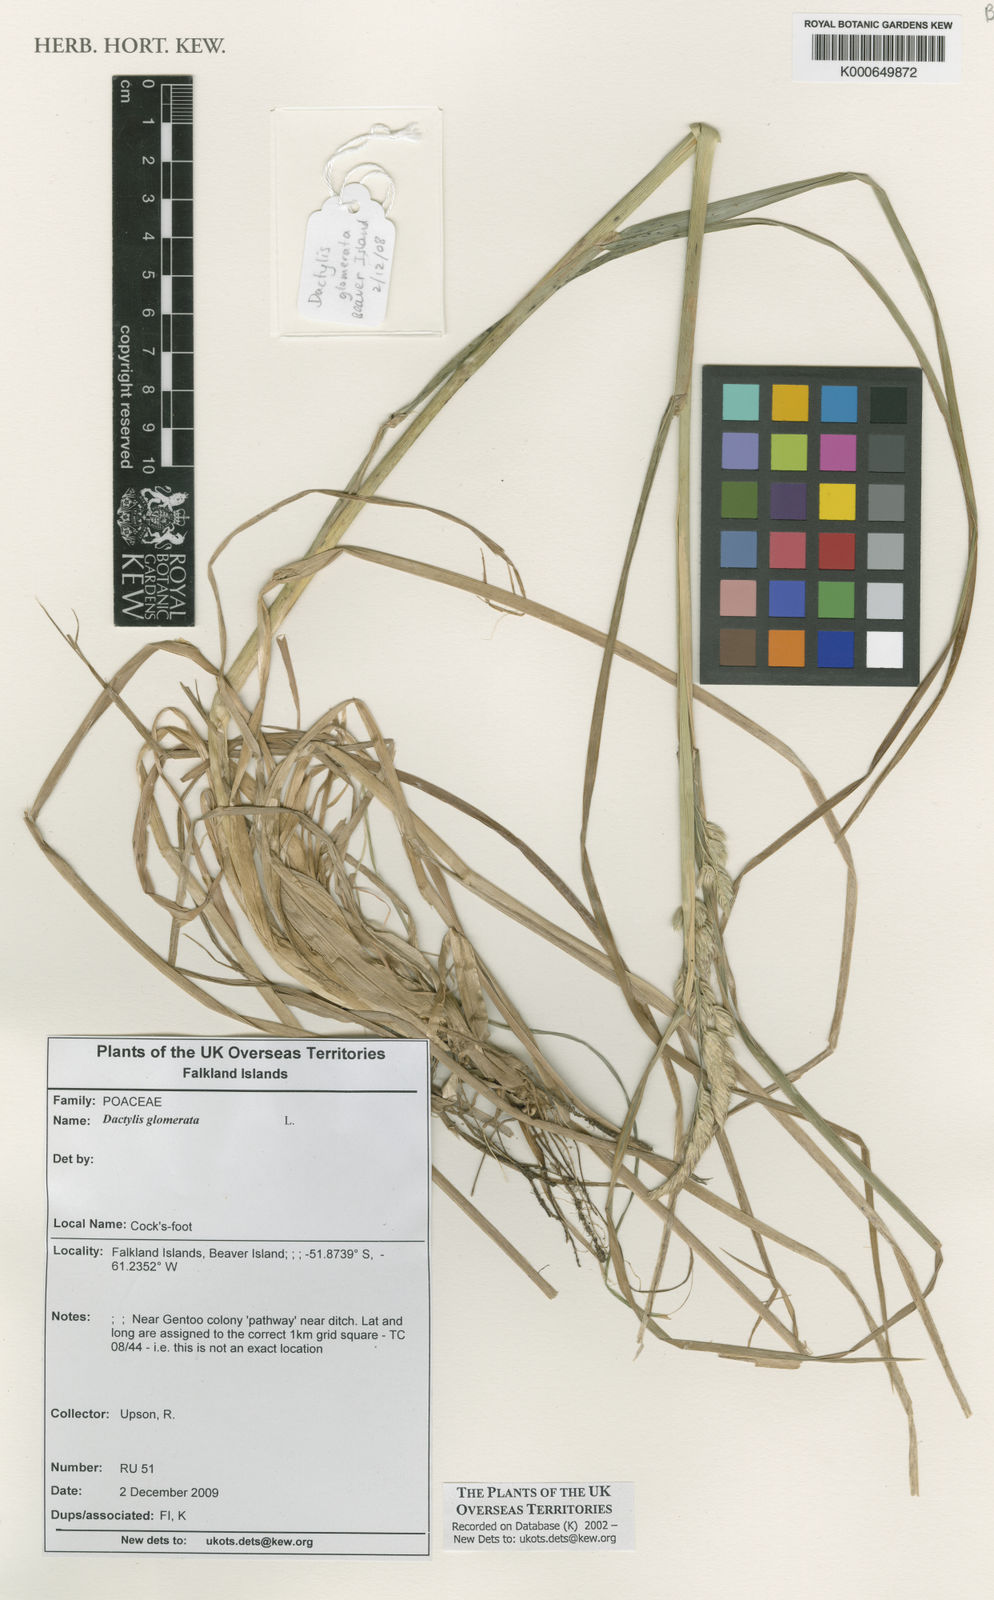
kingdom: Plantae
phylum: Tracheophyta
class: Liliopsida
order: Poales
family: Poaceae
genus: Dactylis
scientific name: Dactylis glomerata
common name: Orchardgrass
